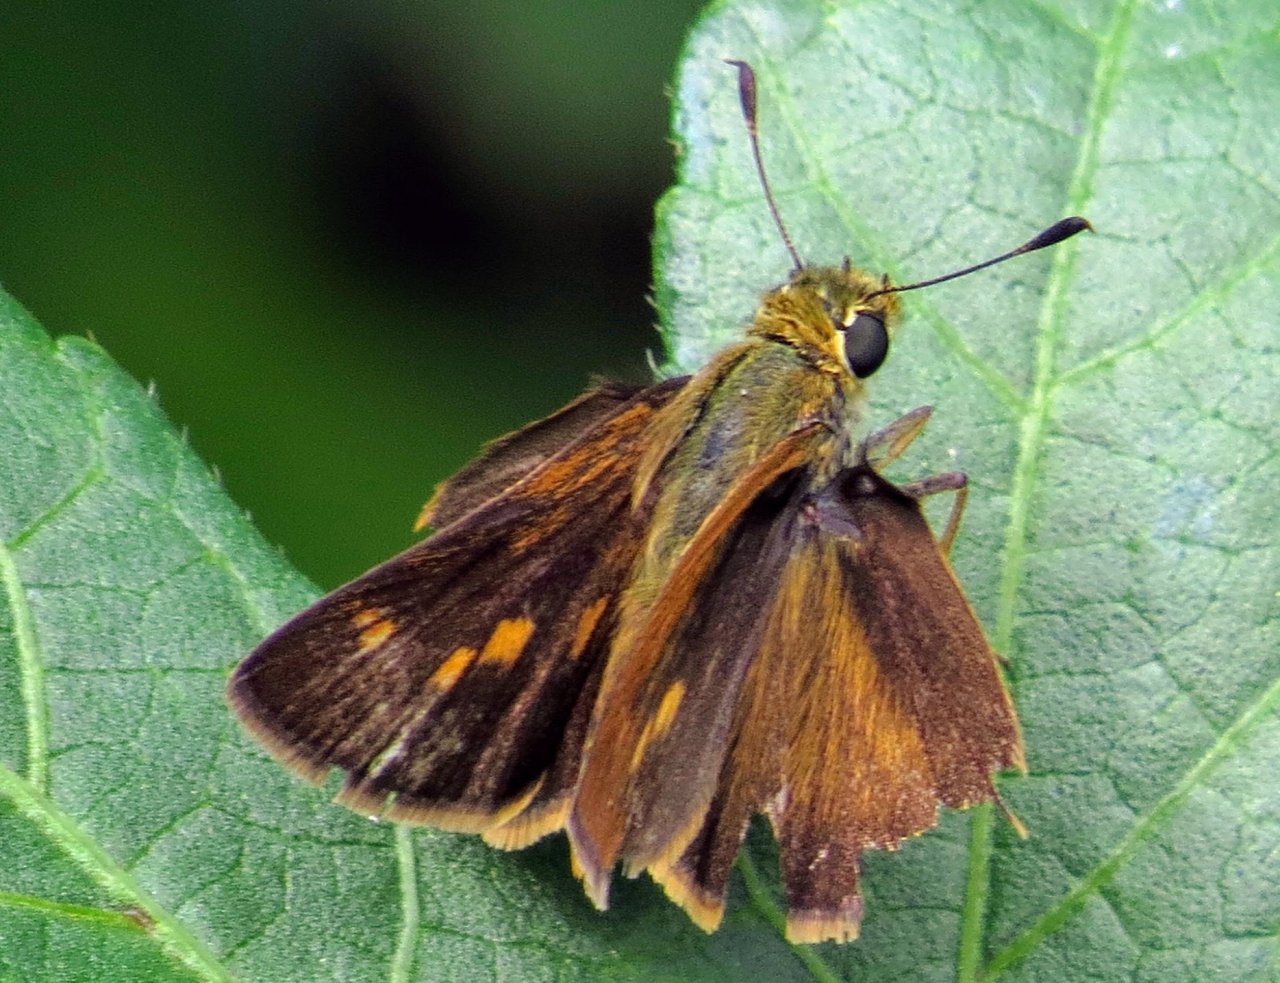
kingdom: Animalia
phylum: Arthropoda
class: Insecta
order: Lepidoptera
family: Hesperiidae
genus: Wallengrenia
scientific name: Wallengrenia otho
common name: Southern Broken-Dash
